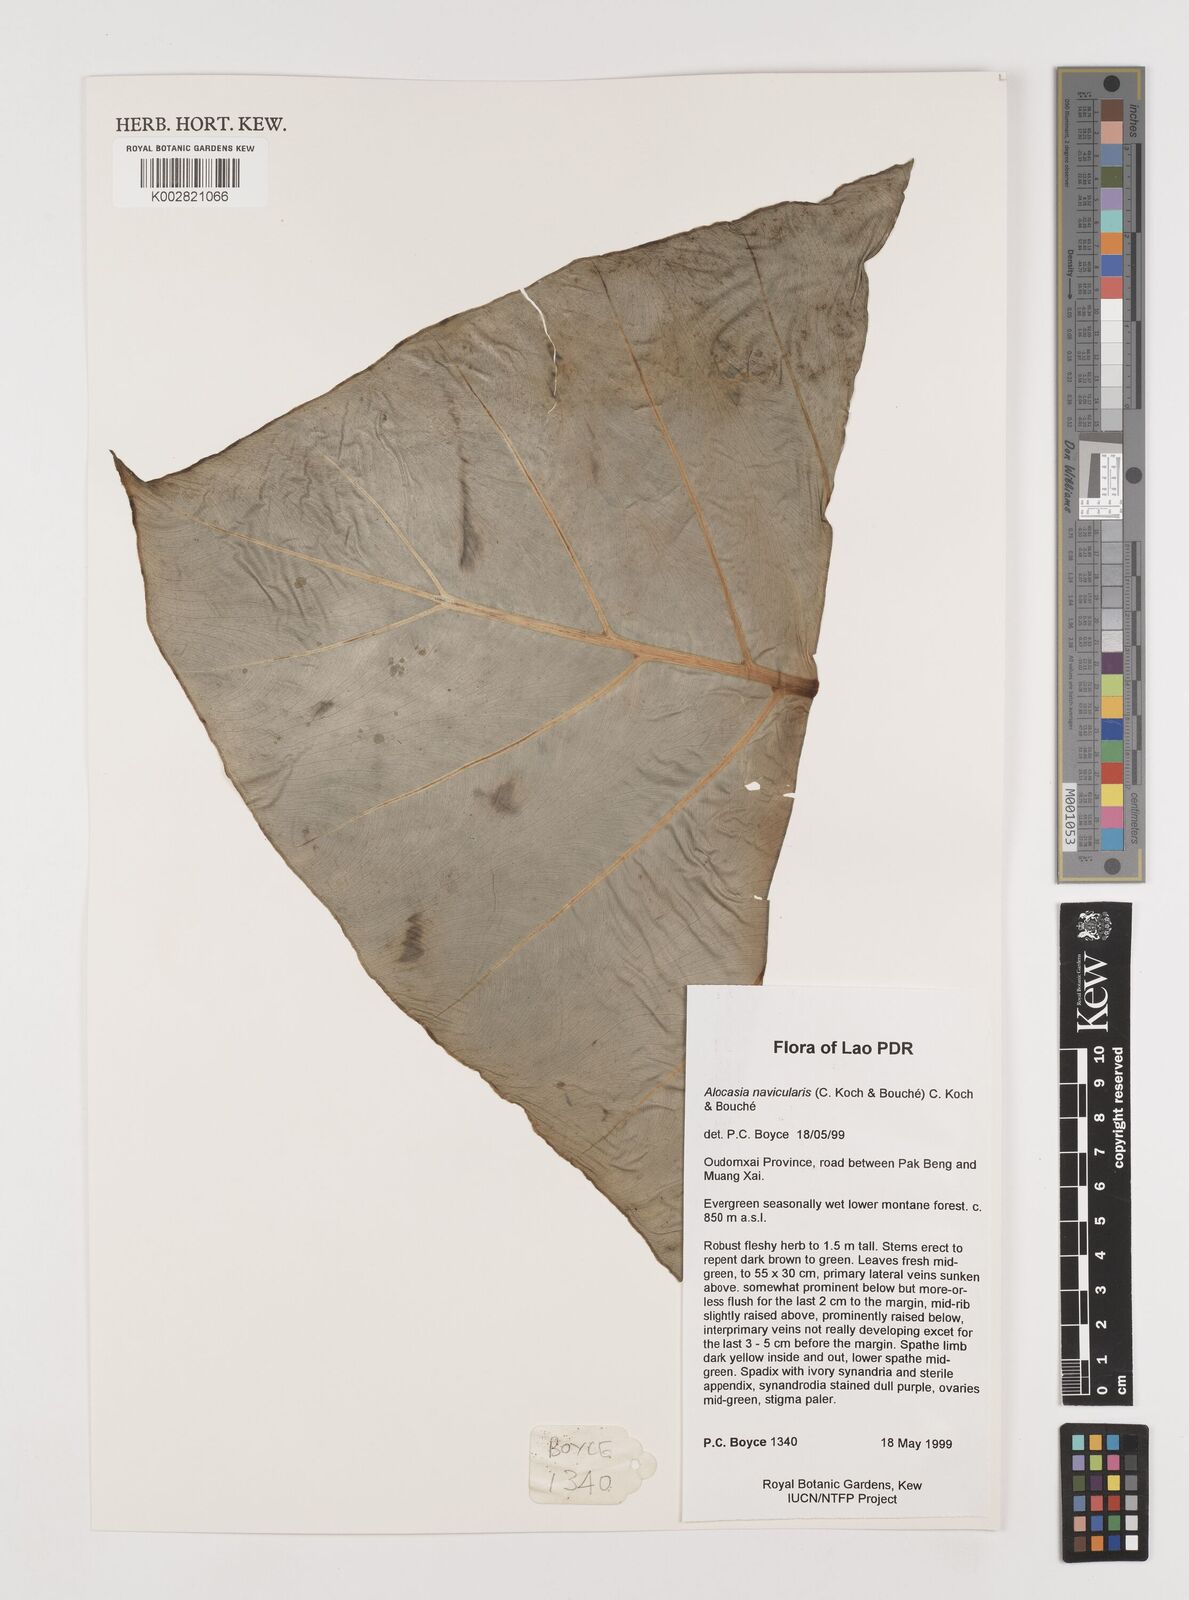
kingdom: Plantae
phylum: Tracheophyta
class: Liliopsida
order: Alismatales
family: Araceae
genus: Alocasia
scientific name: Alocasia navicularis
